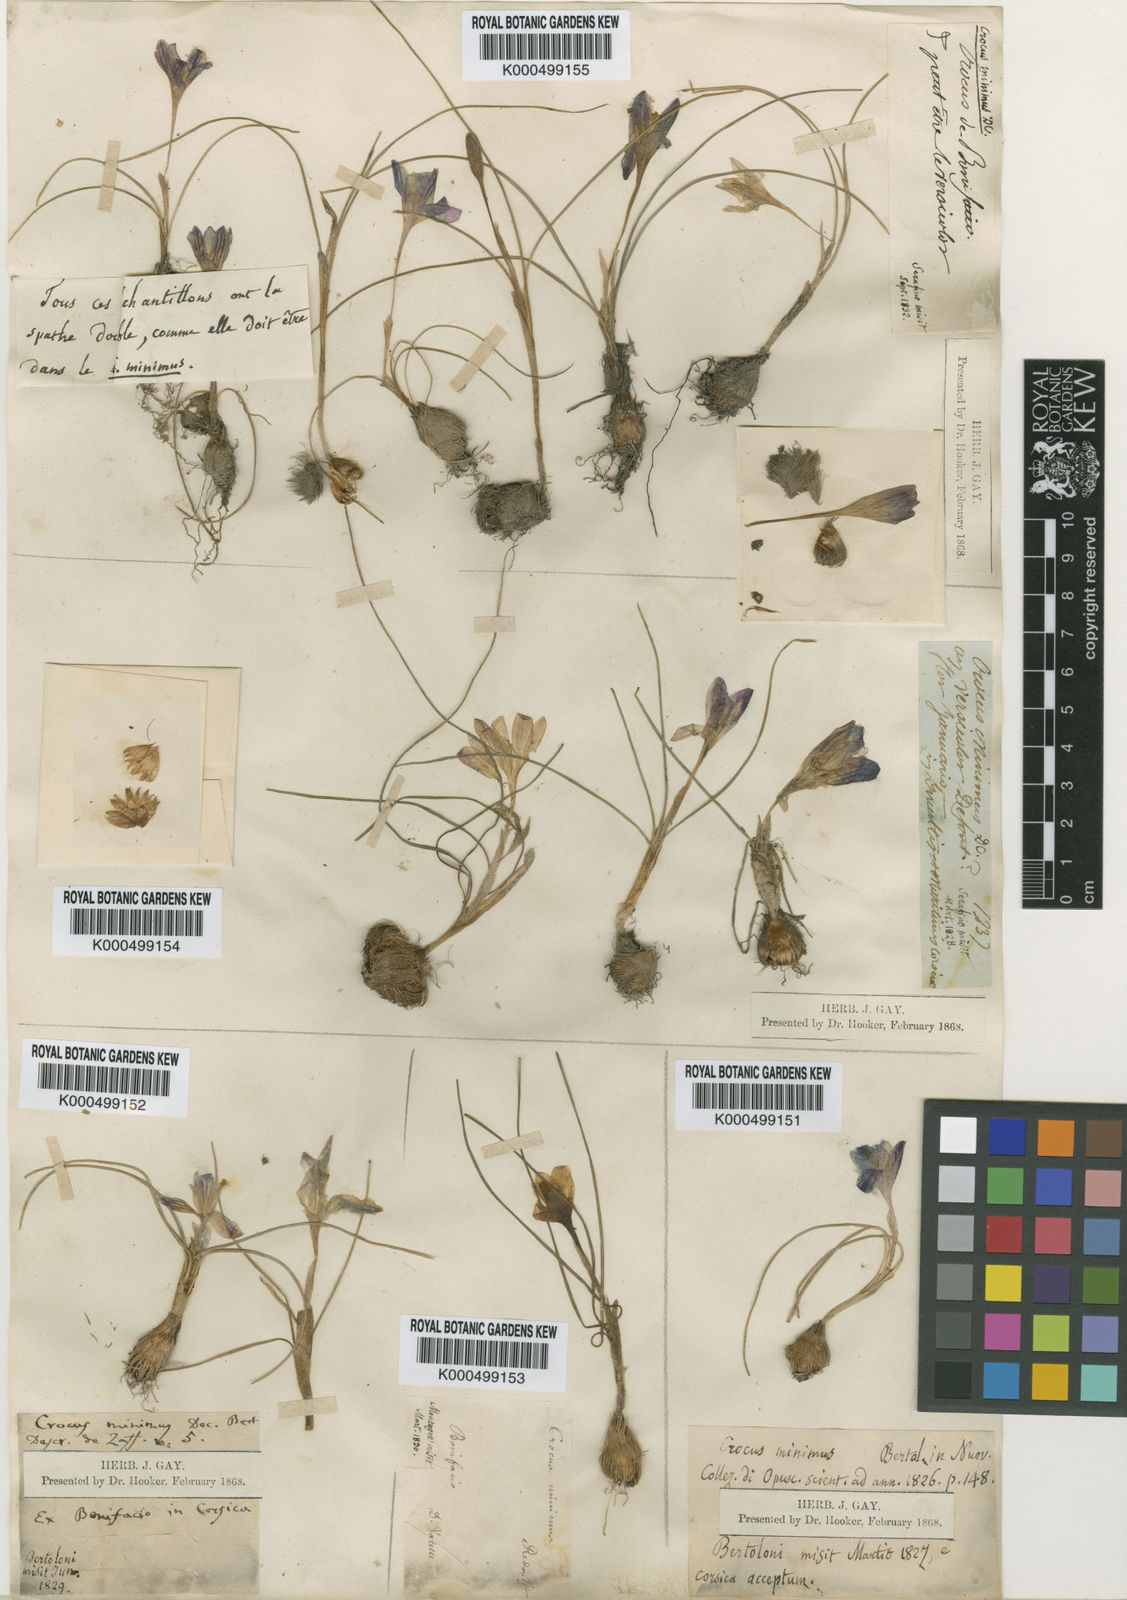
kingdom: Plantae
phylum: Tracheophyta
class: Liliopsida
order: Asparagales
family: Iridaceae
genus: Crocus
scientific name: Crocus
